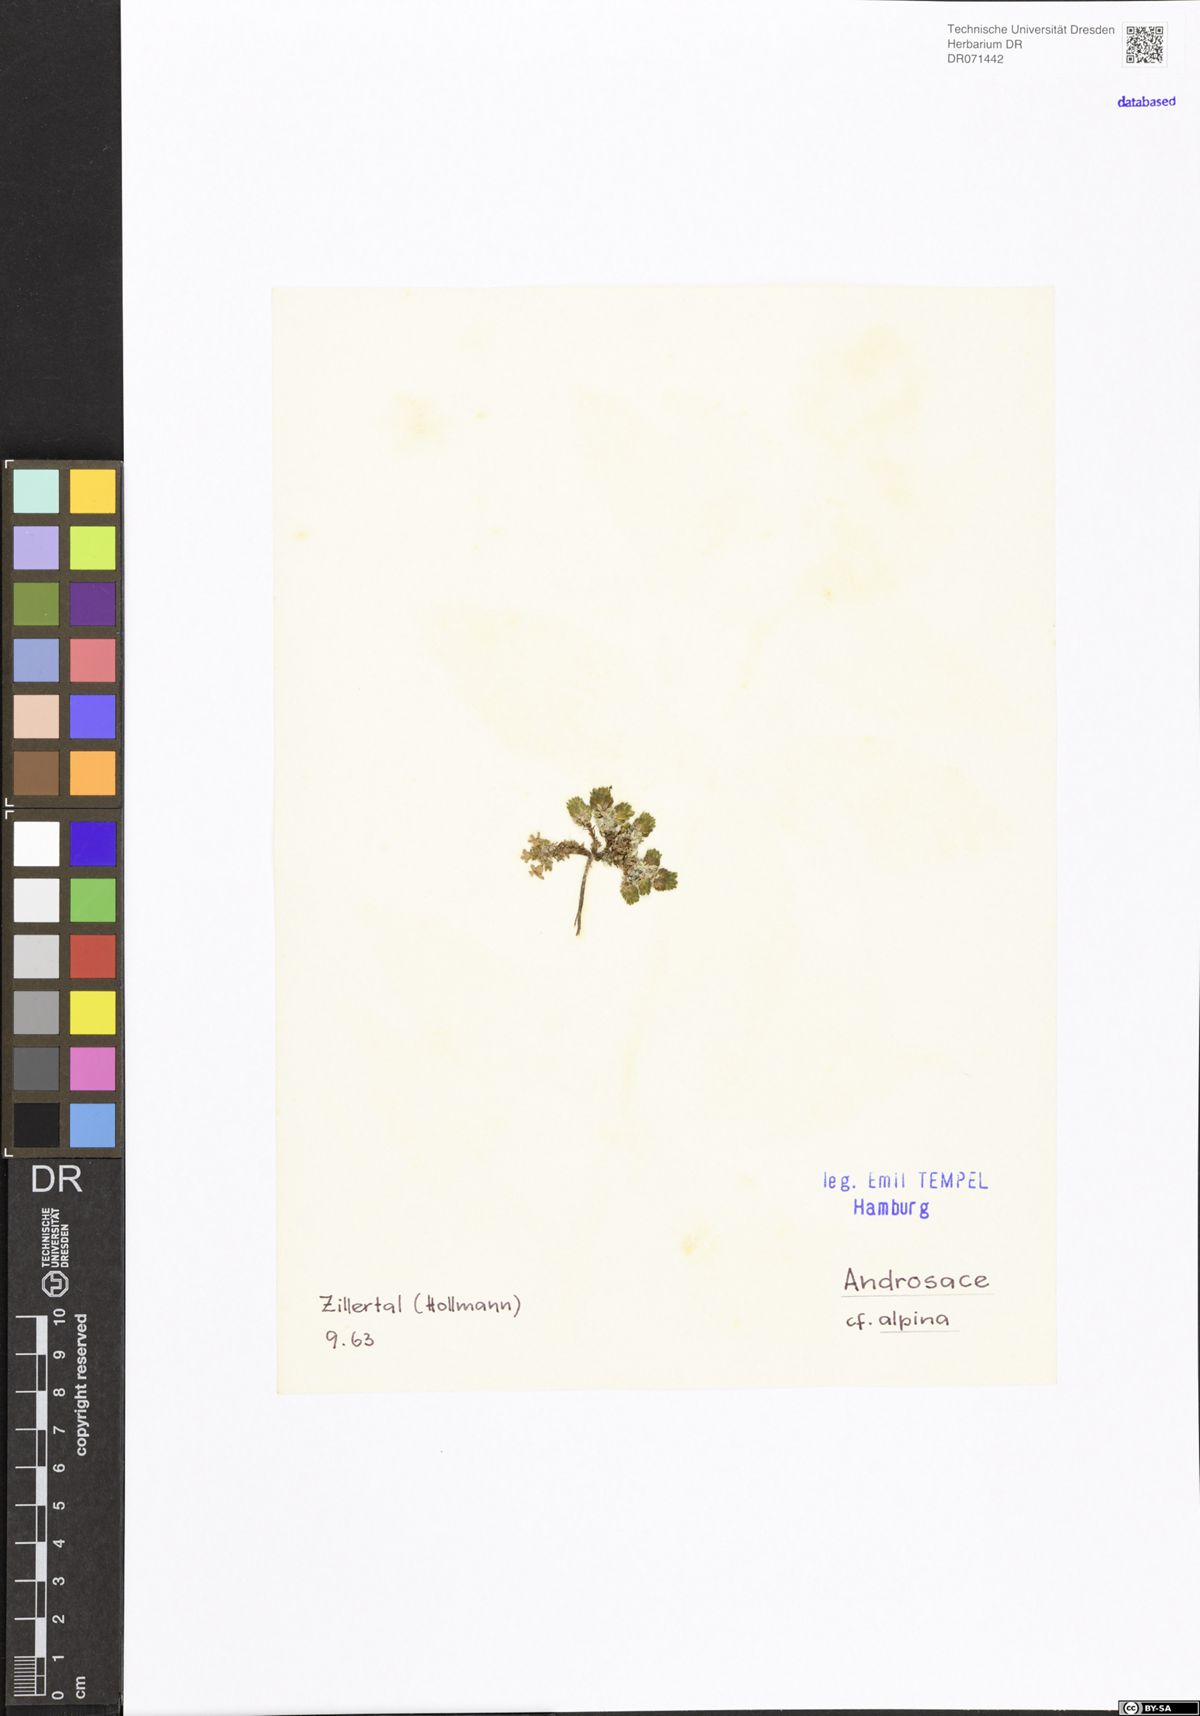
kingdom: Plantae
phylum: Tracheophyta
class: Magnoliopsida
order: Ericales
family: Primulaceae
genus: Androsace
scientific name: Androsace alpina
